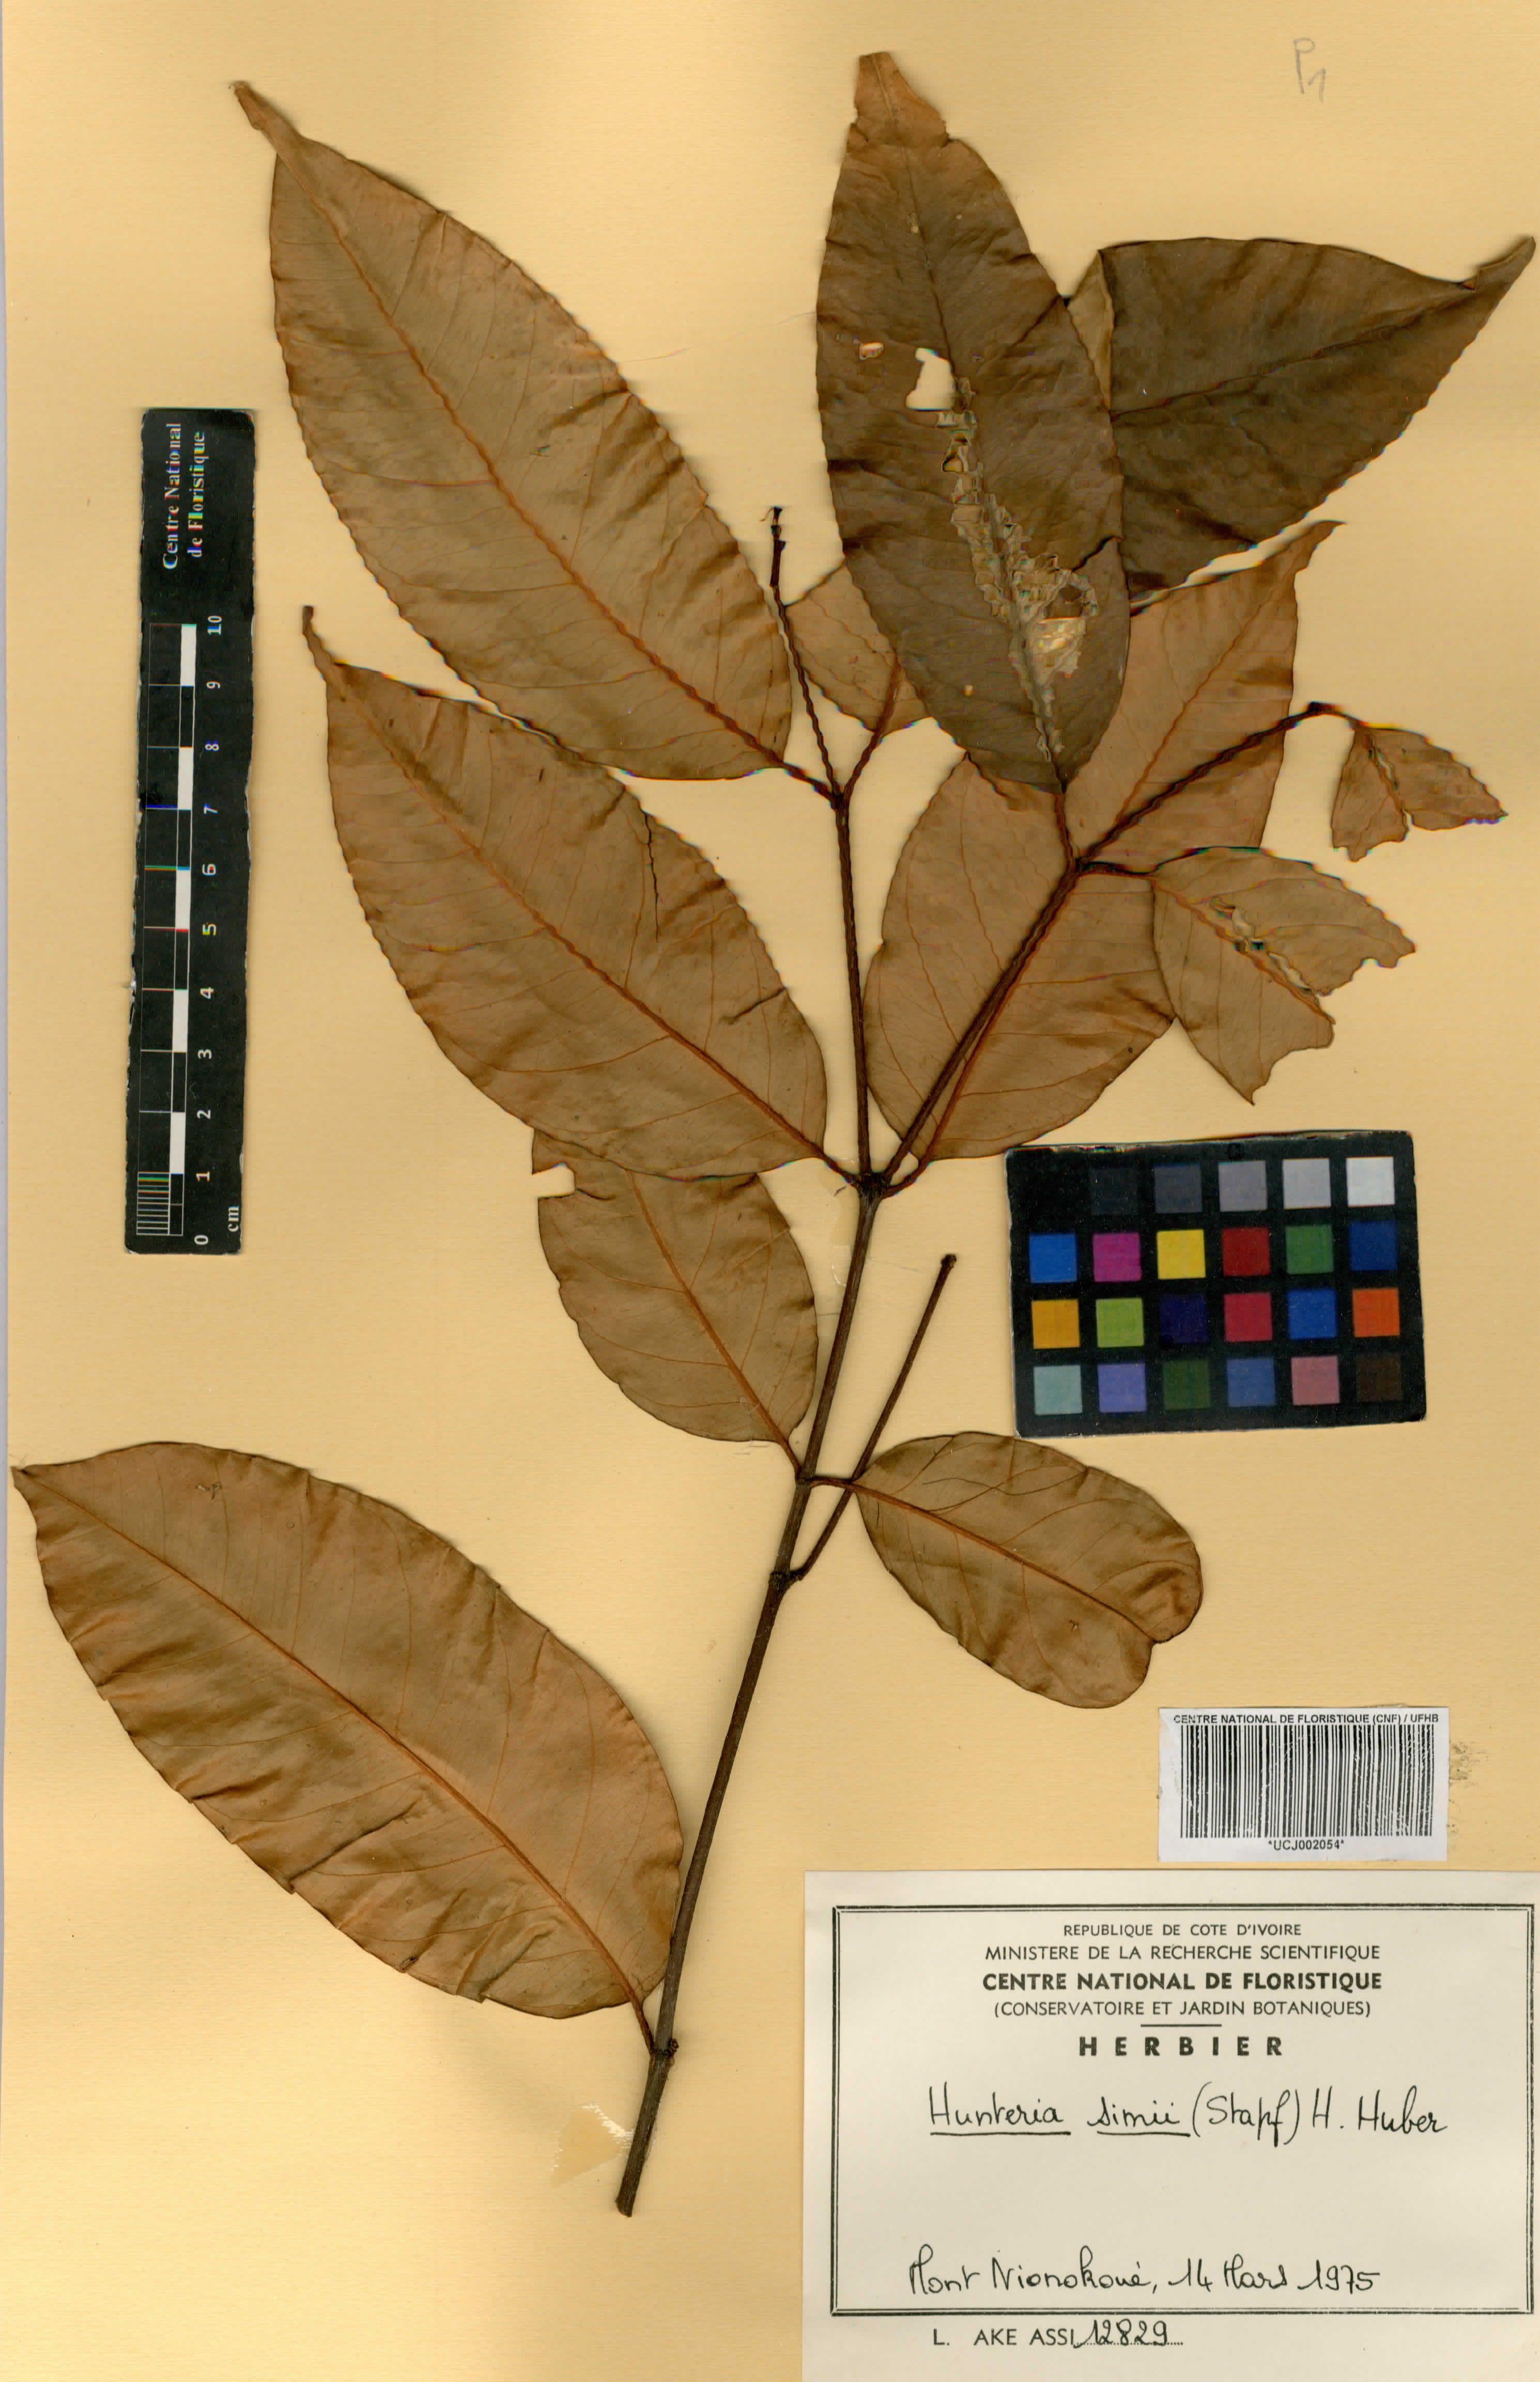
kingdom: Plantae
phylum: Tracheophyta
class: Magnoliopsida
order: Gentianales
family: Apocynaceae
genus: Hunteria
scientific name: Hunteria simii
